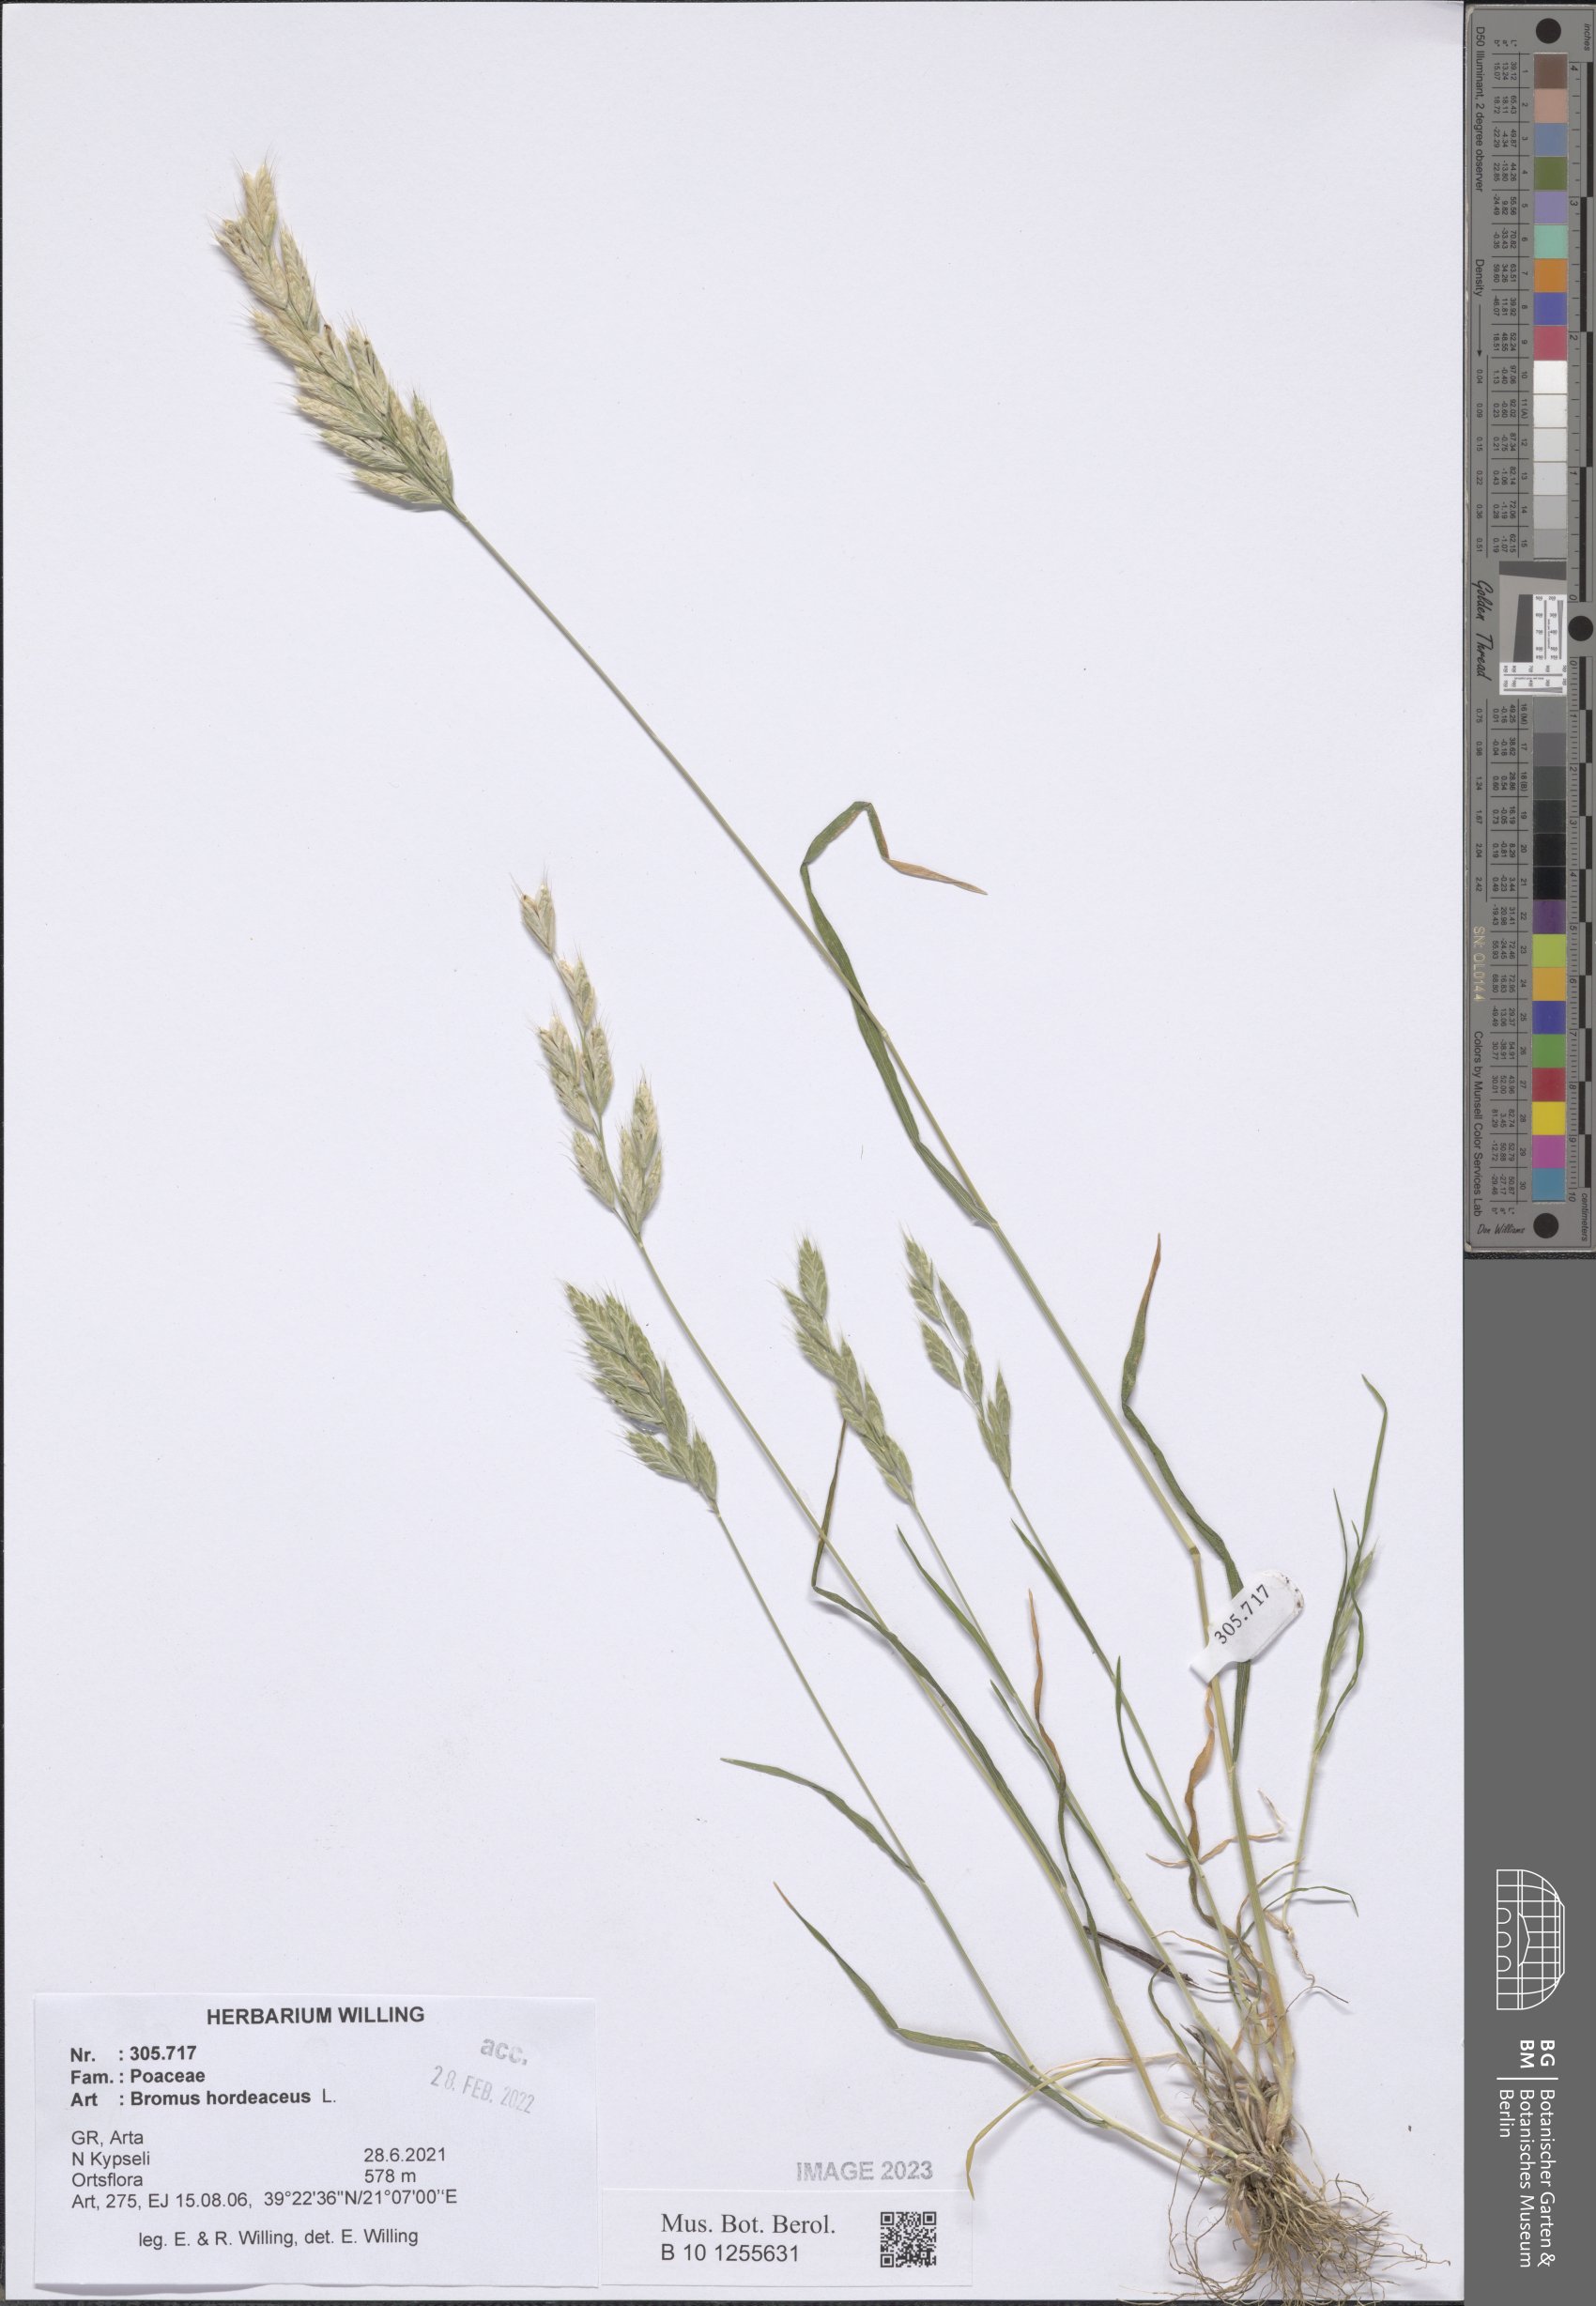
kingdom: Plantae
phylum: Tracheophyta
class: Liliopsida
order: Poales
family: Poaceae
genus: Bromus
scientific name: Bromus hordeaceus
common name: Soft brome
